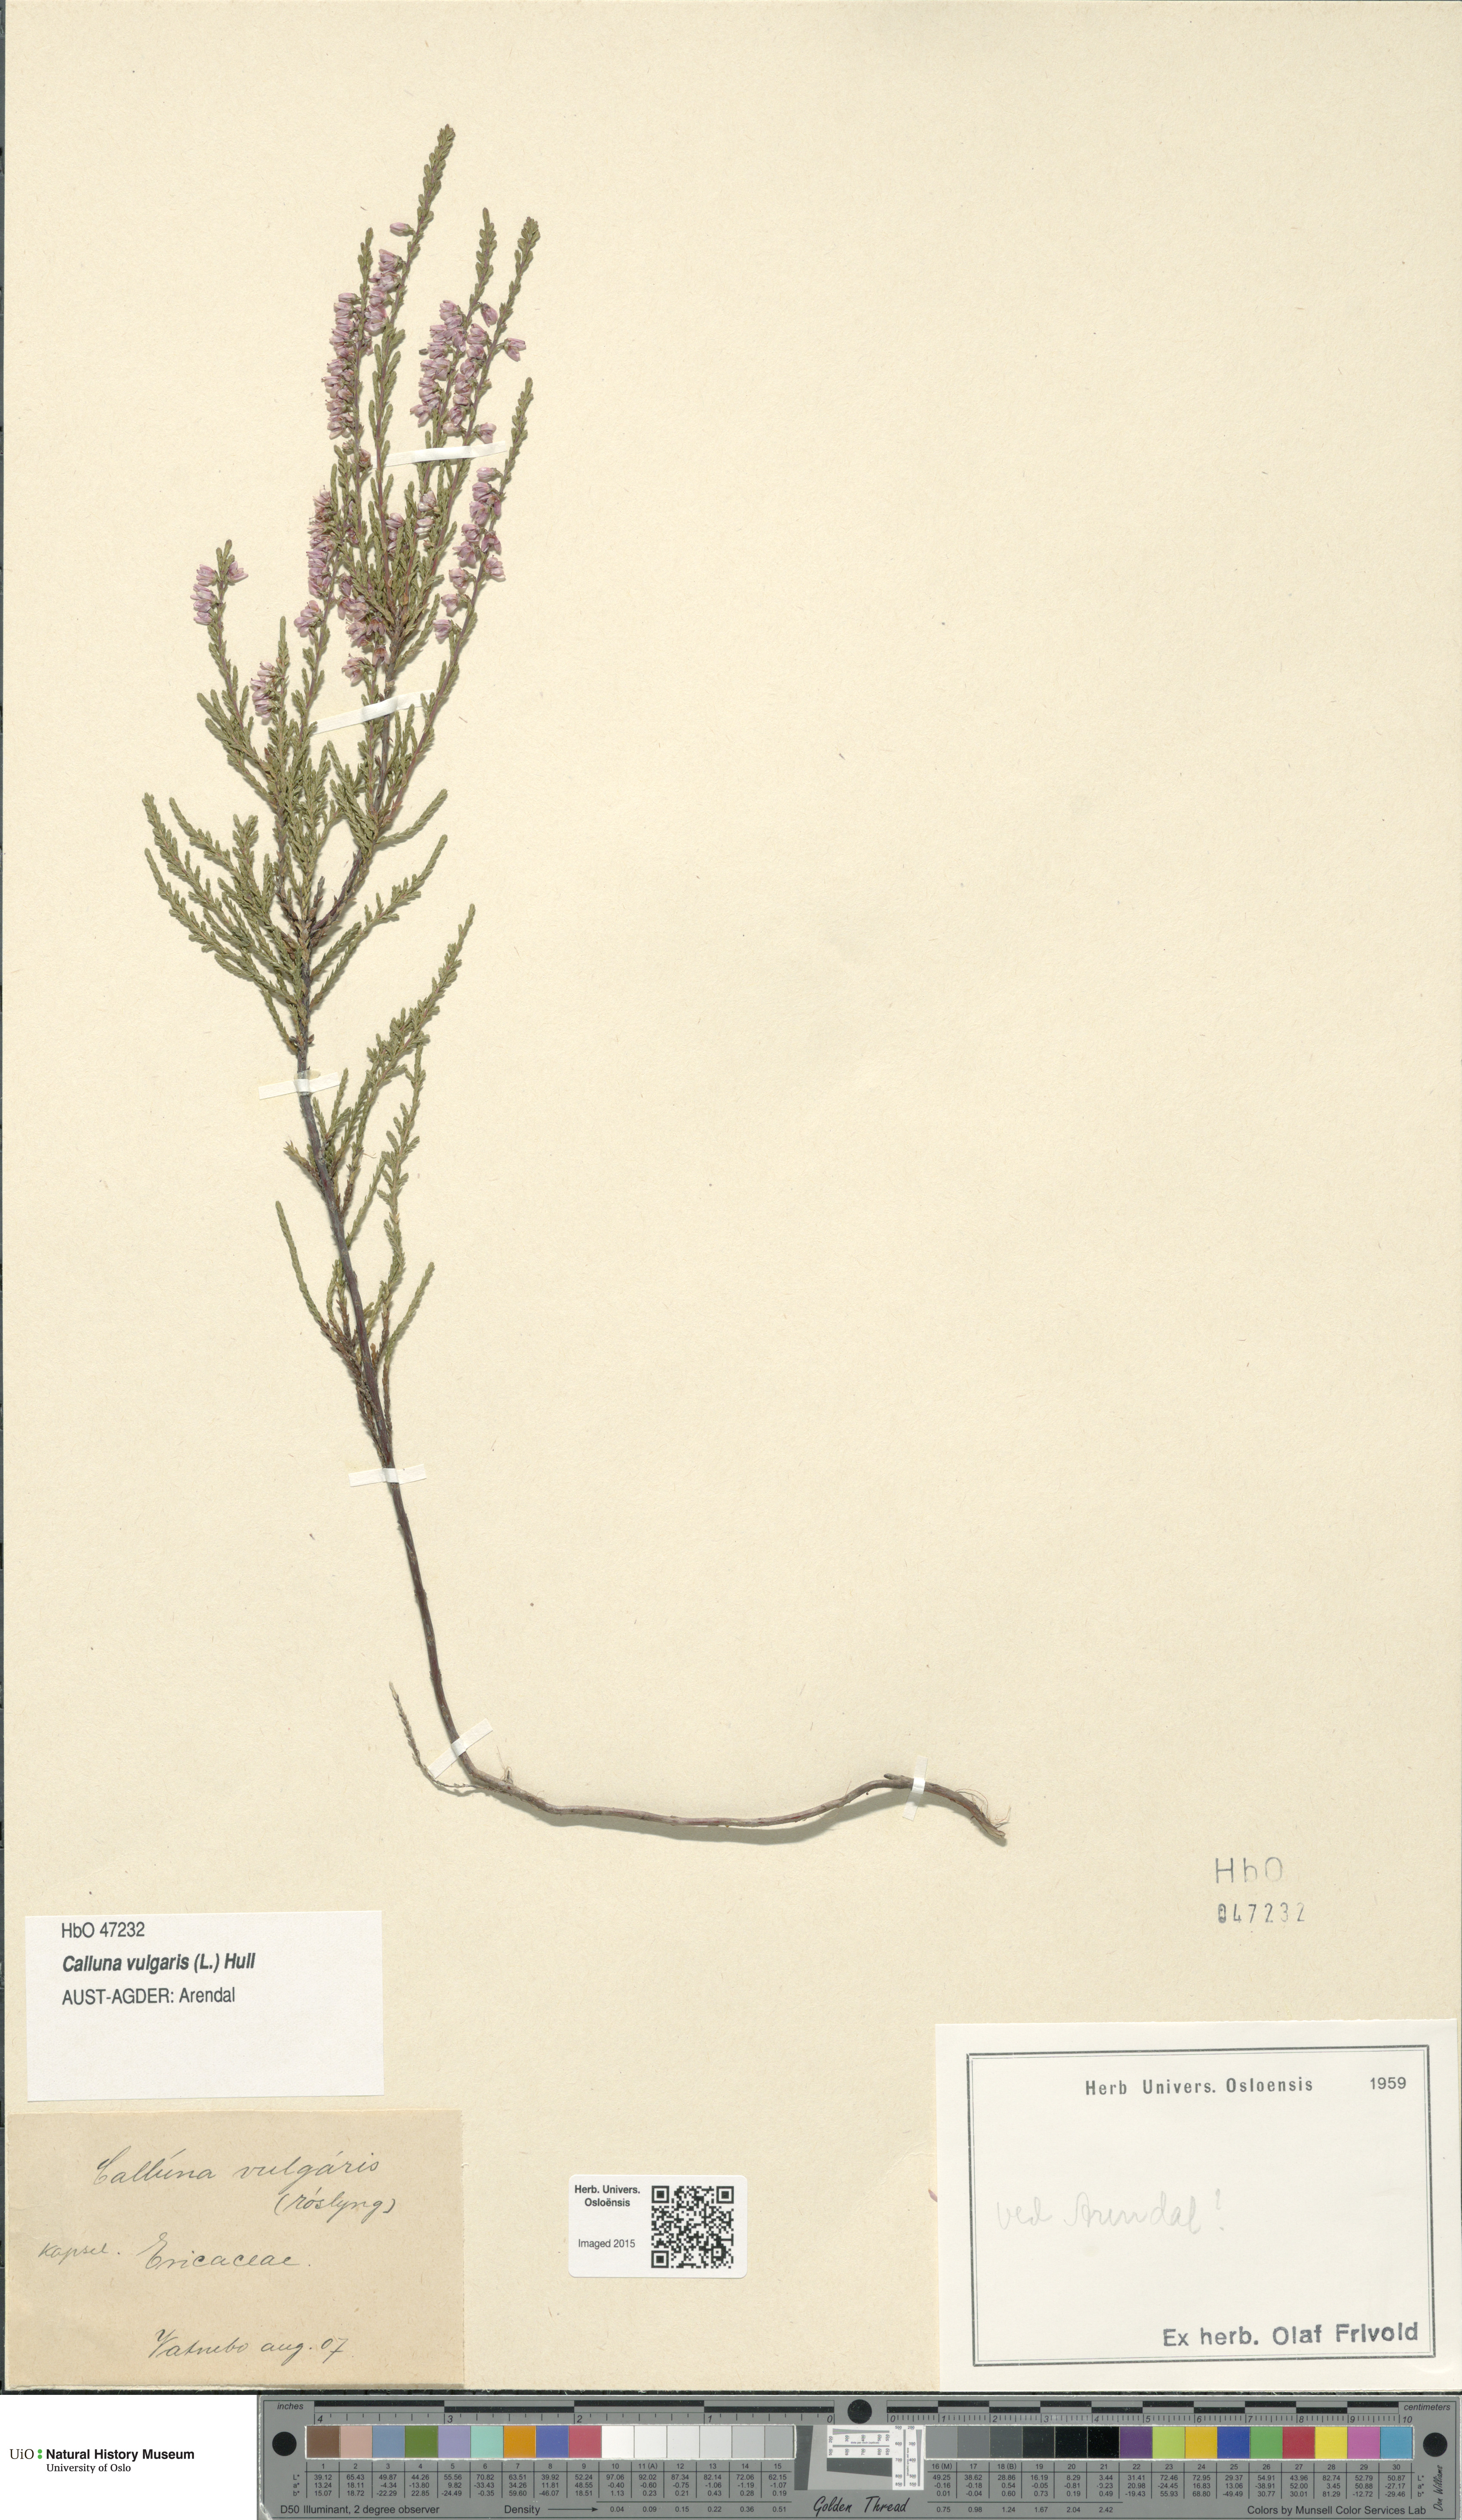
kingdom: Plantae
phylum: Tracheophyta
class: Magnoliopsida
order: Ericales
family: Ericaceae
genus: Calluna
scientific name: Calluna vulgaris
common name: Heather
